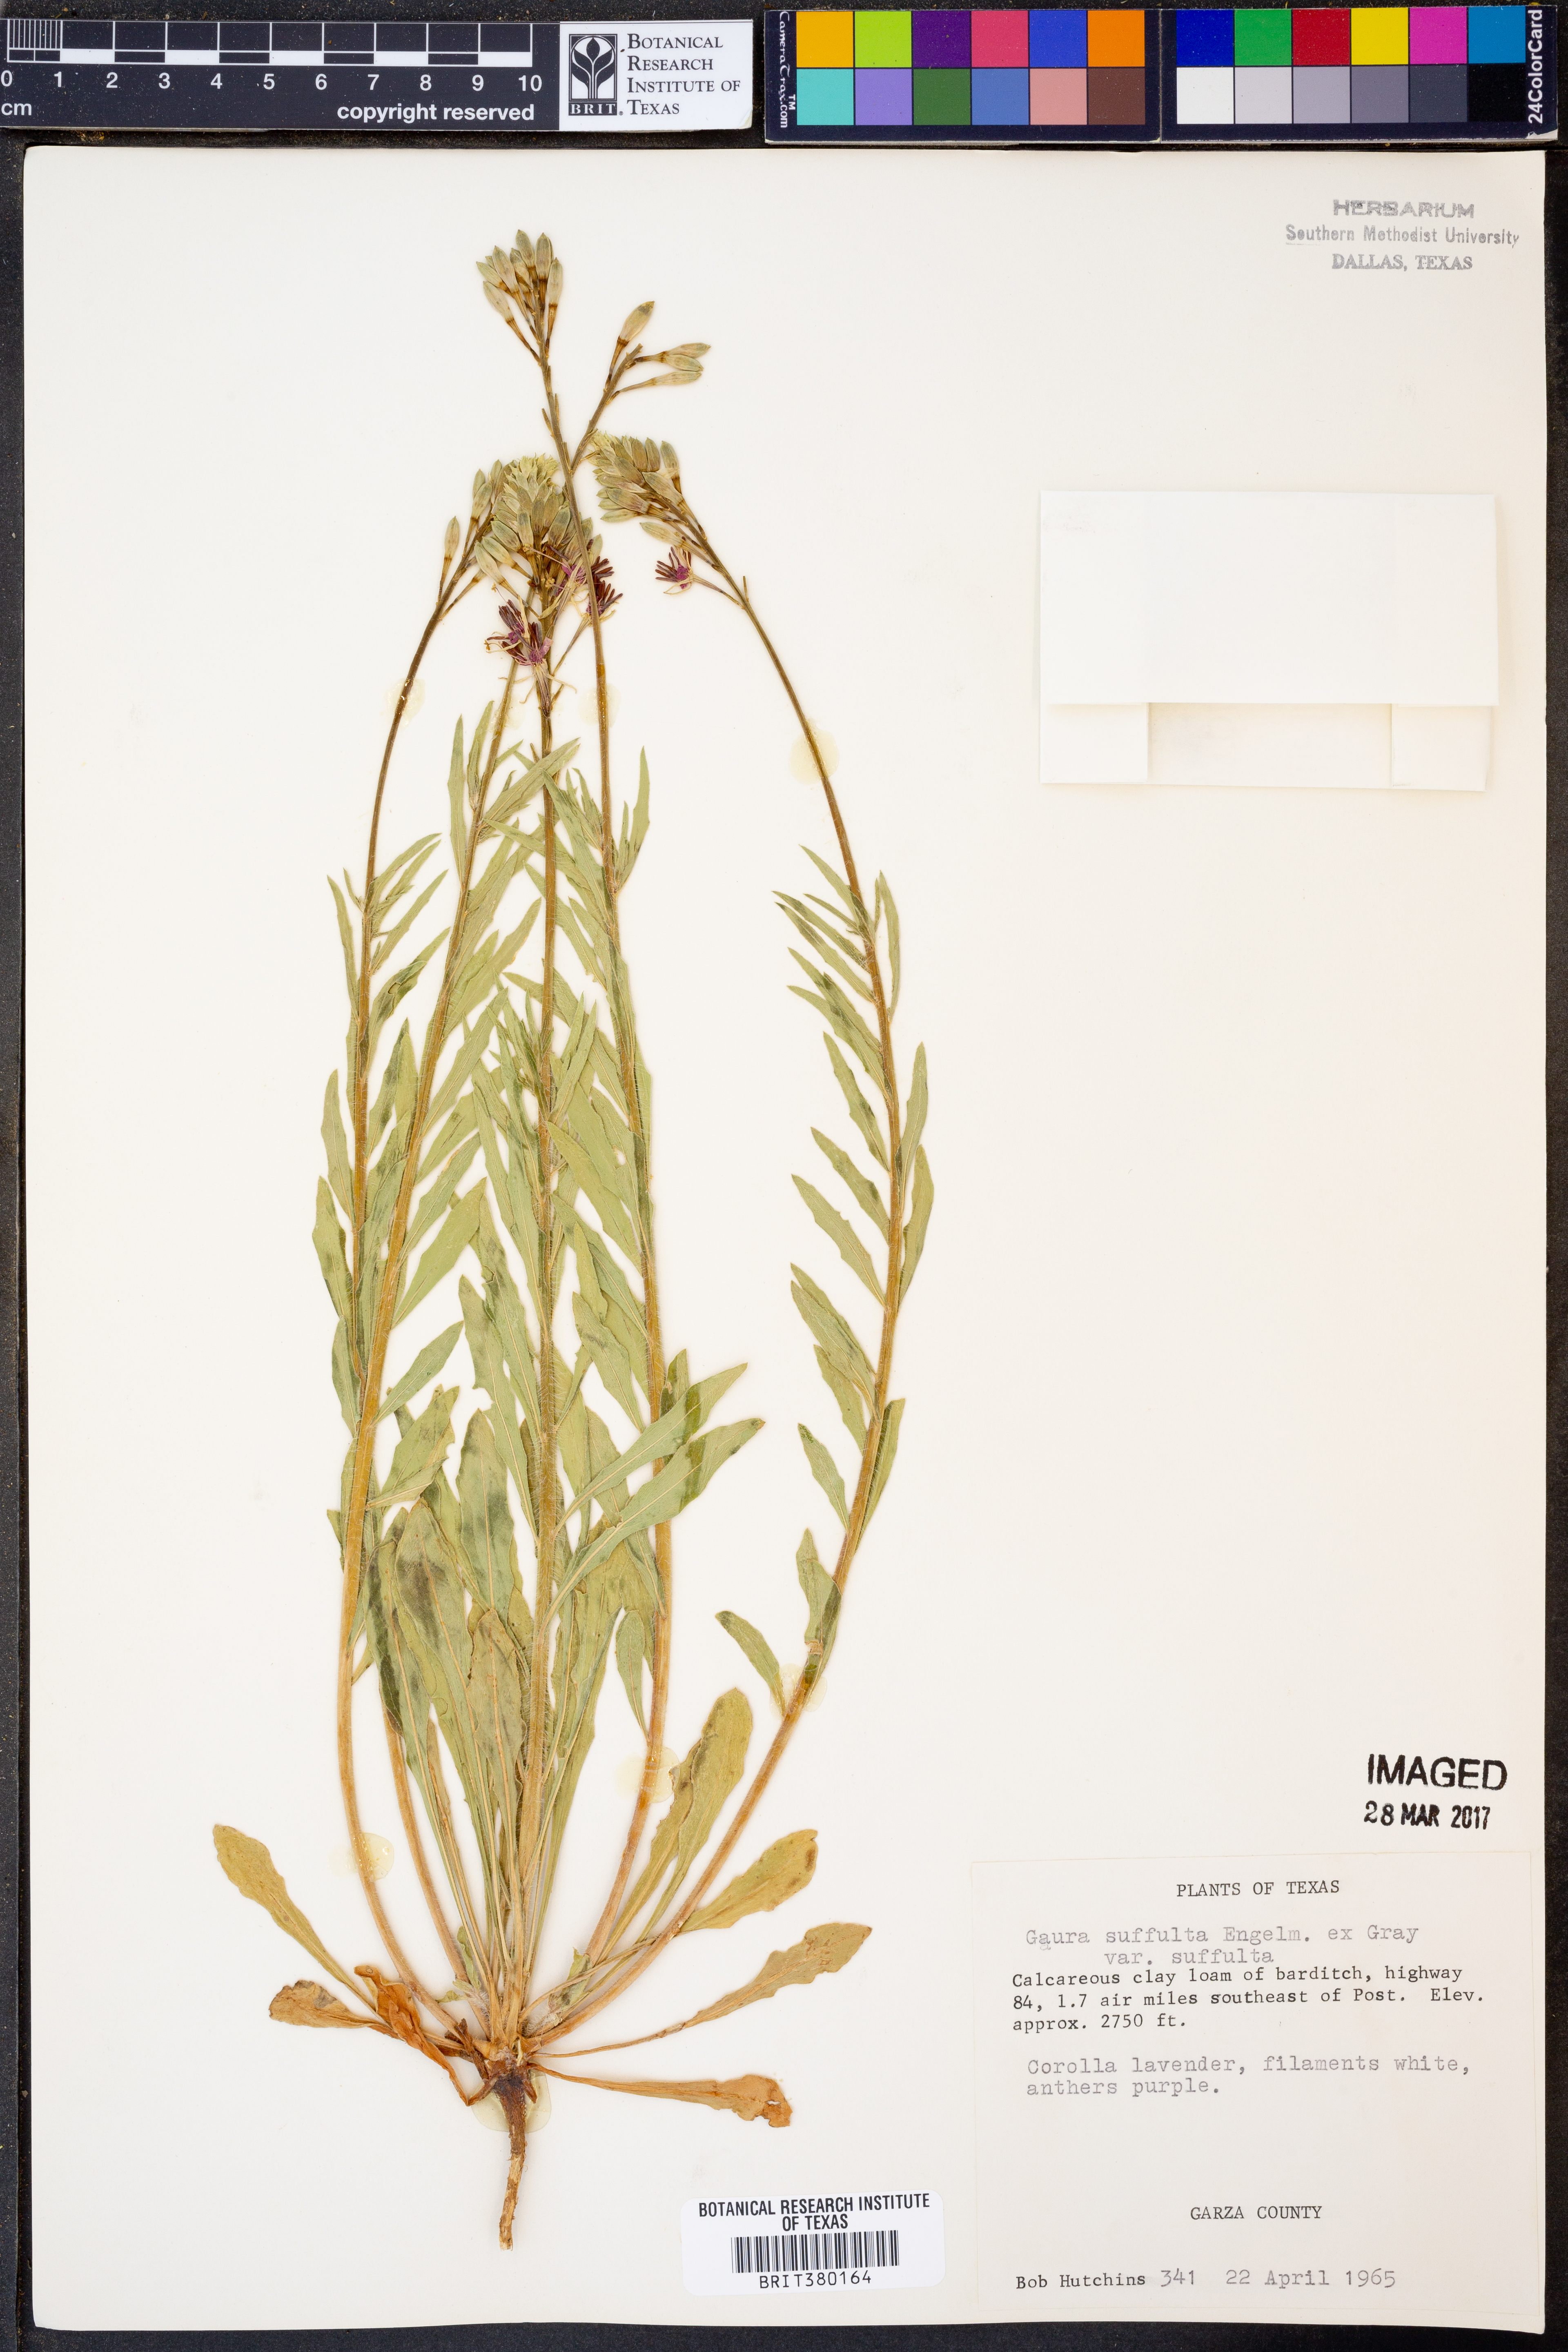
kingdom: Plantae
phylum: Tracheophyta
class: Magnoliopsida
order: Myrtales
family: Onagraceae
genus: Oenothera
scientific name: Oenothera suffulta
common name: Kisses
